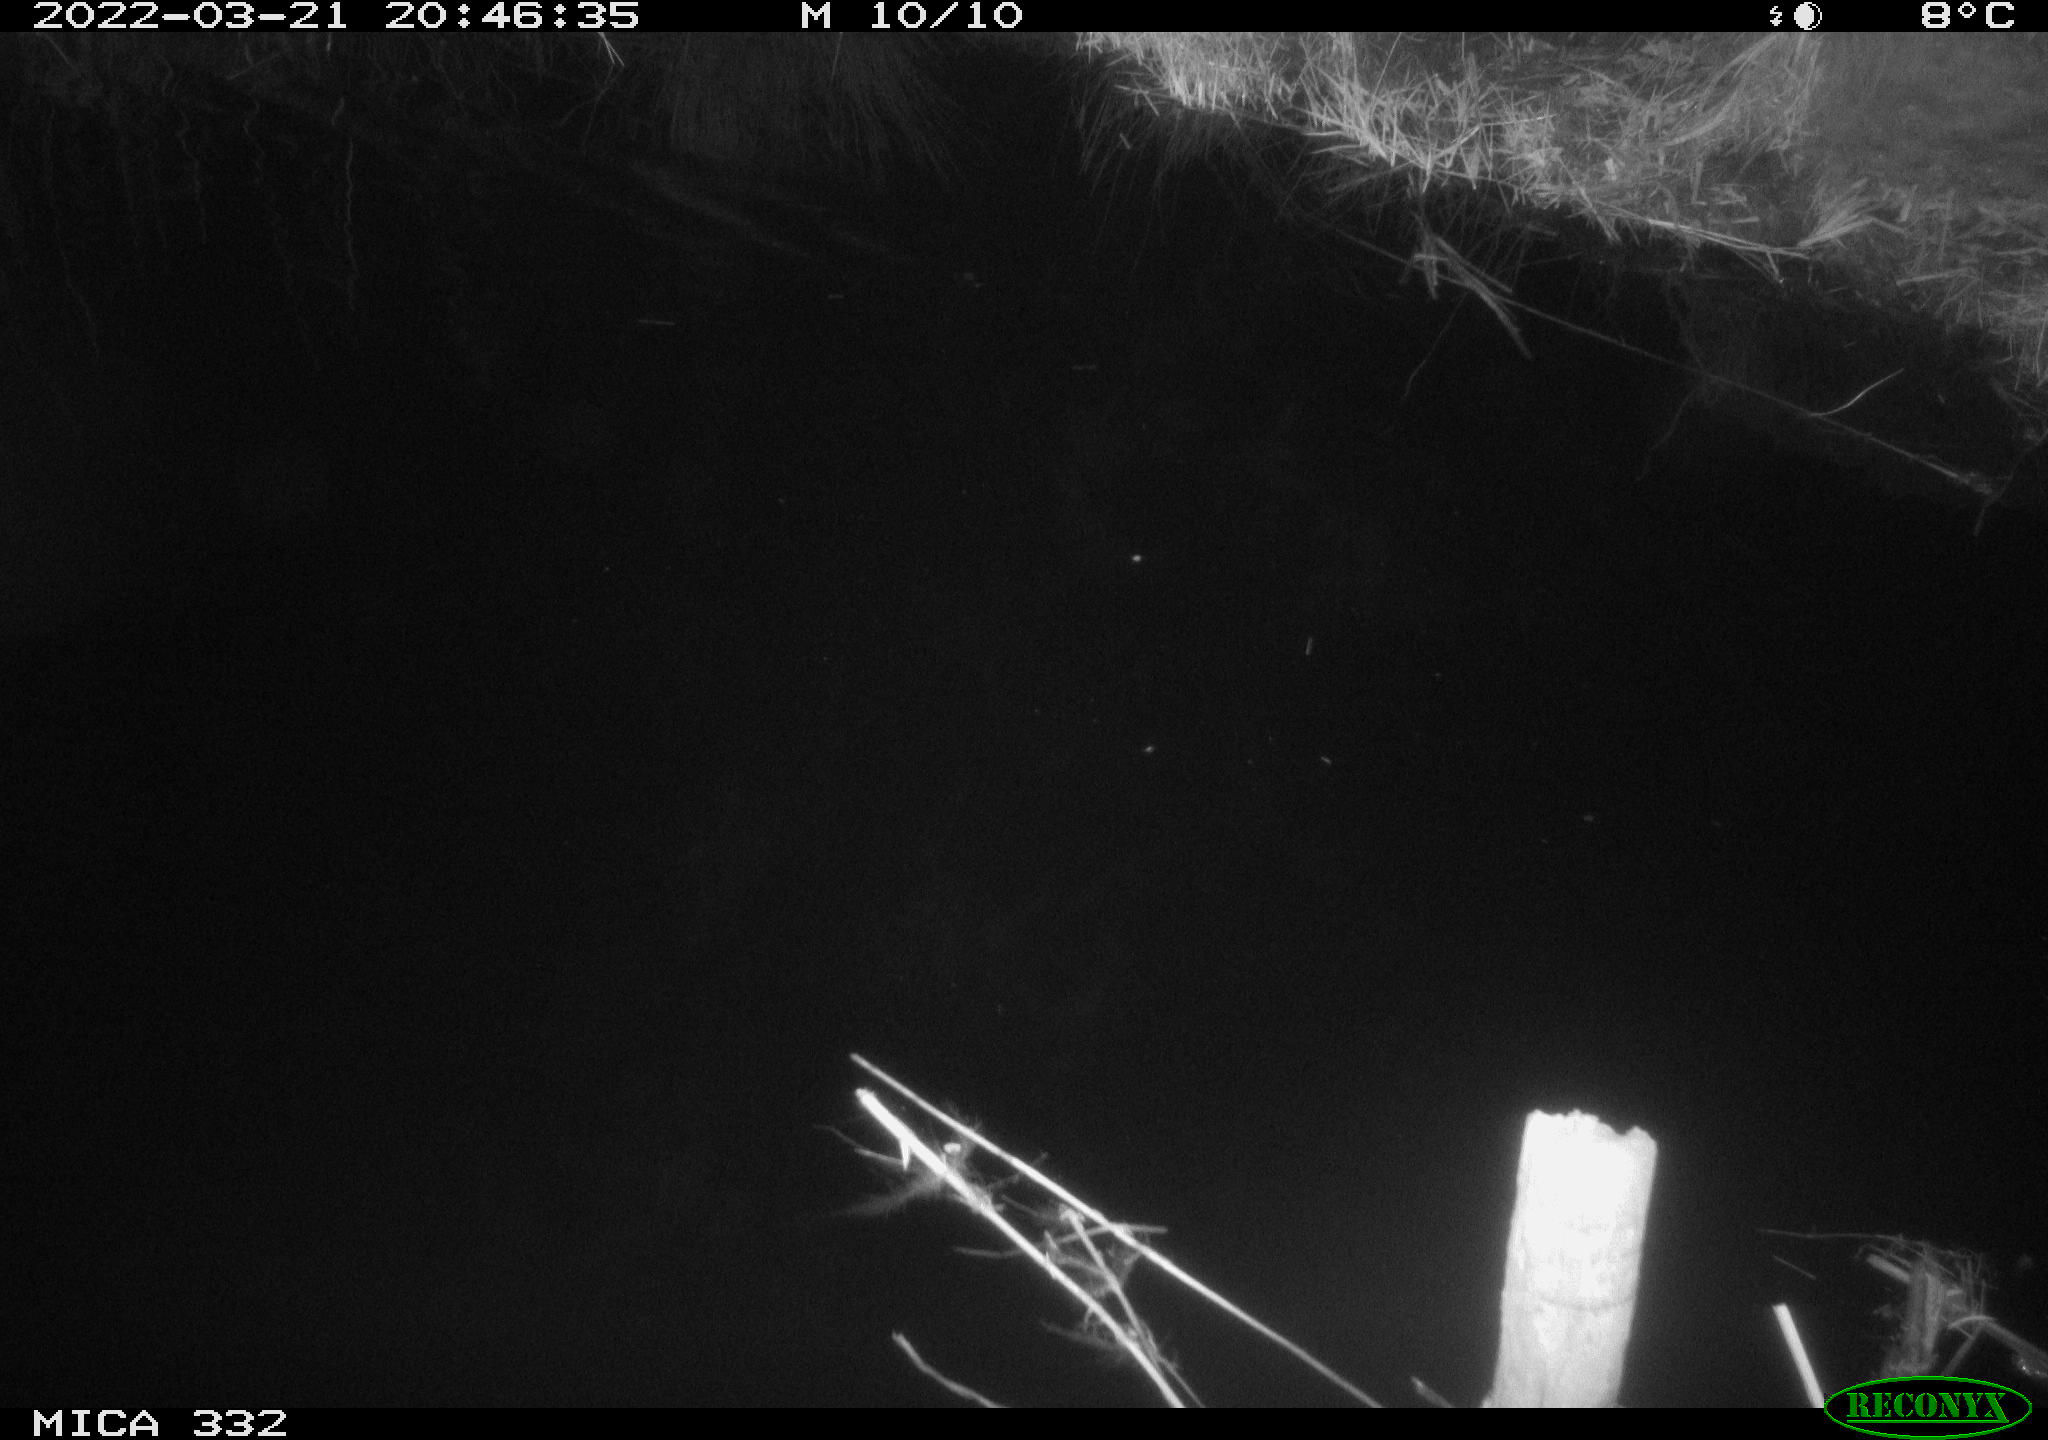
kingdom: Animalia
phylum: Chordata
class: Aves
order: Anseriformes
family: Anatidae
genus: Anas
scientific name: Anas platyrhynchos
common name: Mallard
